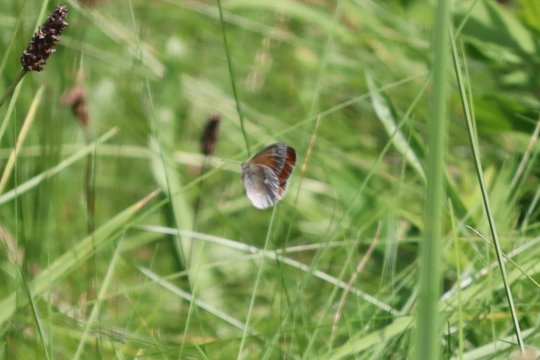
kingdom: Animalia
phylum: Arthropoda
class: Insecta
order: Lepidoptera
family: Nymphalidae
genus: Coenonympha
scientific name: Coenonympha california
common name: California Ringlet
